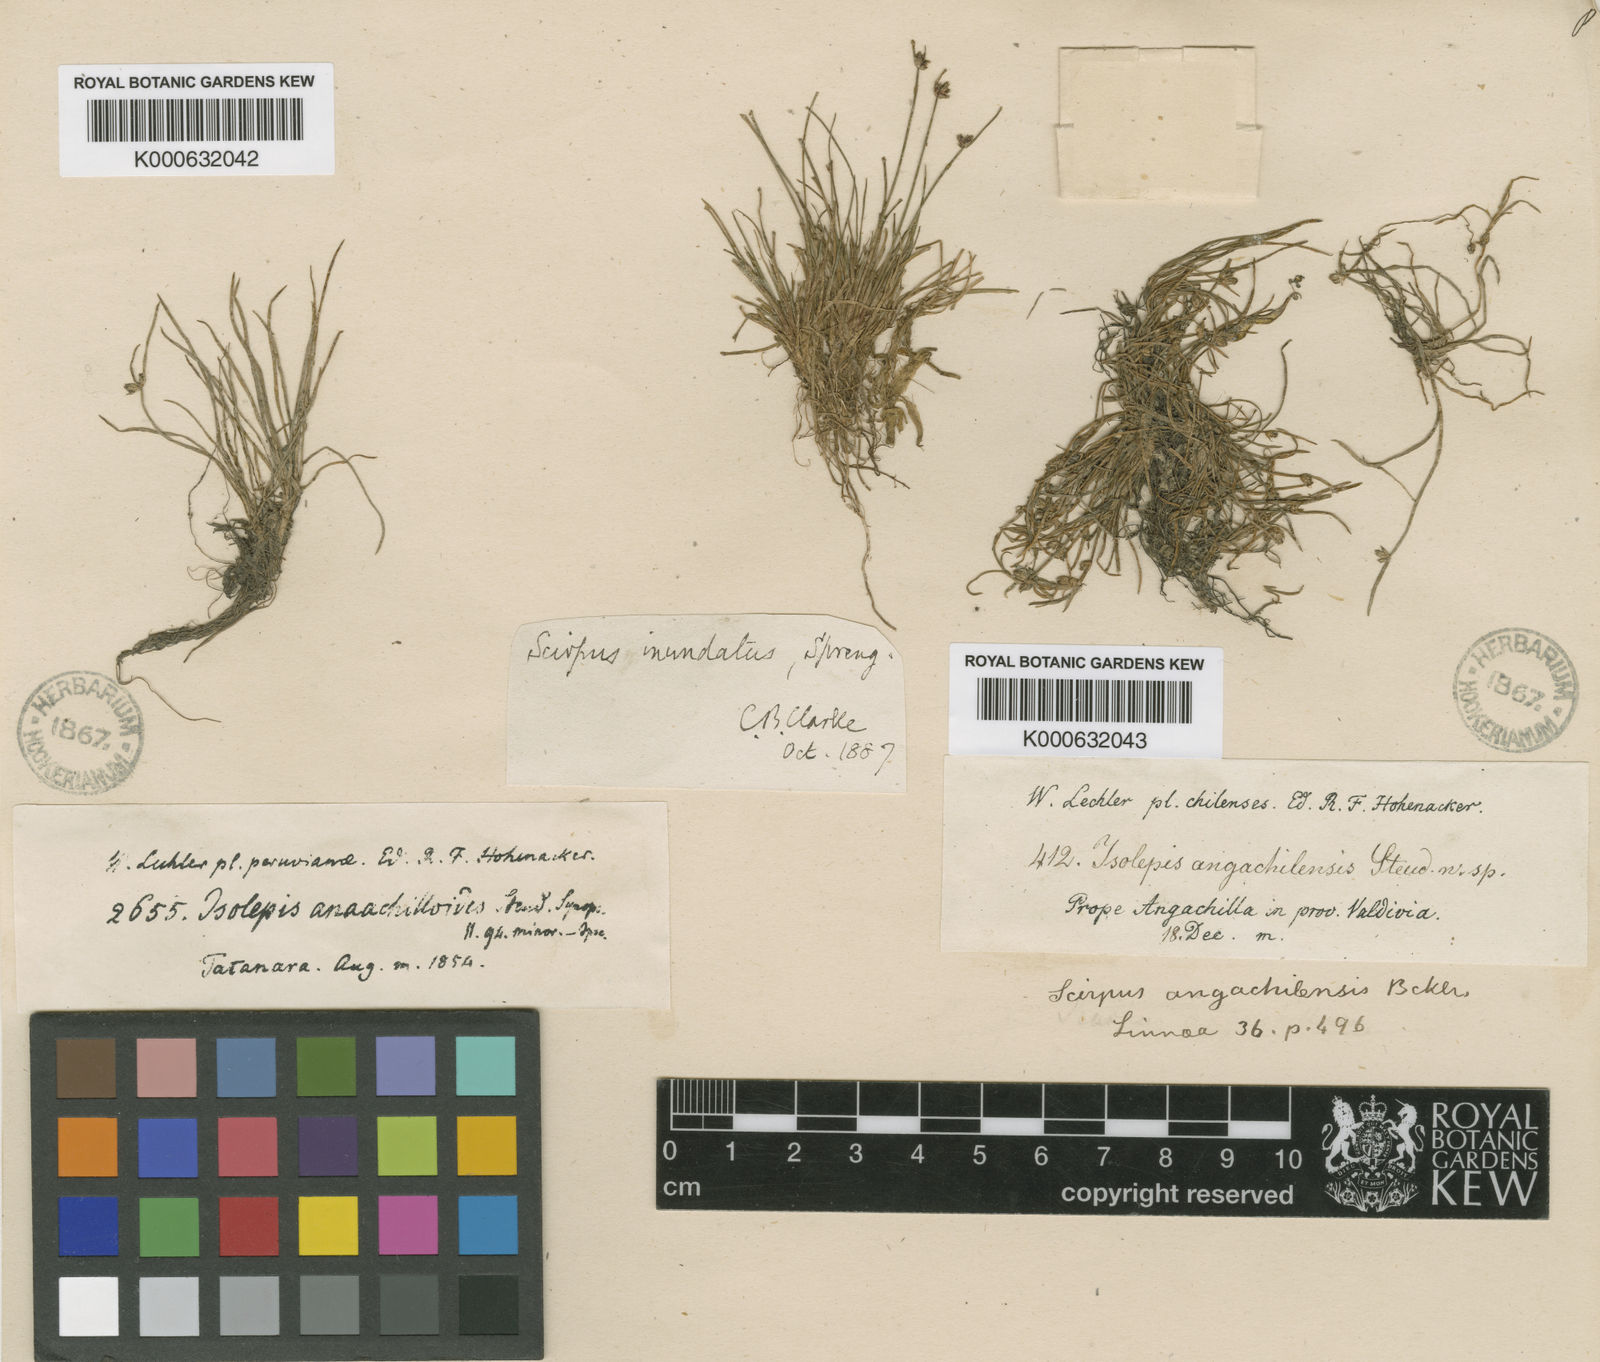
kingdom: Plantae
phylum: Tracheophyta
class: Liliopsida
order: Poales
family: Cyperaceae
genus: Isolepis
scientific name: Isolepis inundata
